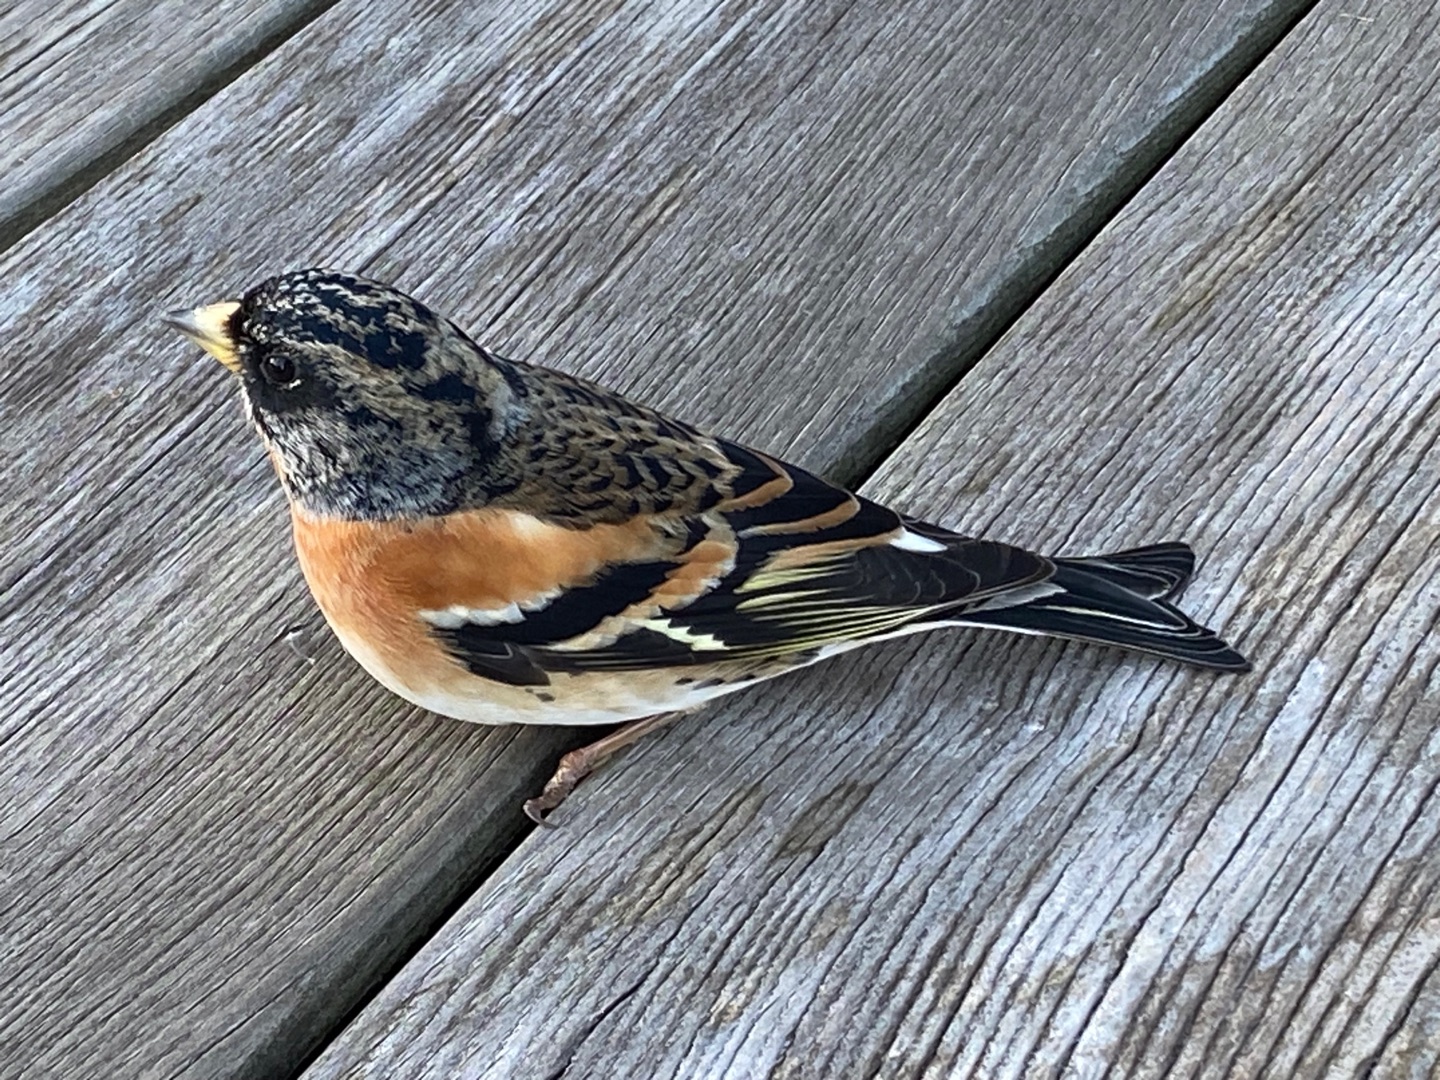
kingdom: Animalia
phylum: Chordata
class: Aves
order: Passeriformes
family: Fringillidae
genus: Fringilla
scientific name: Fringilla montifringilla
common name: Kvækerfinke
